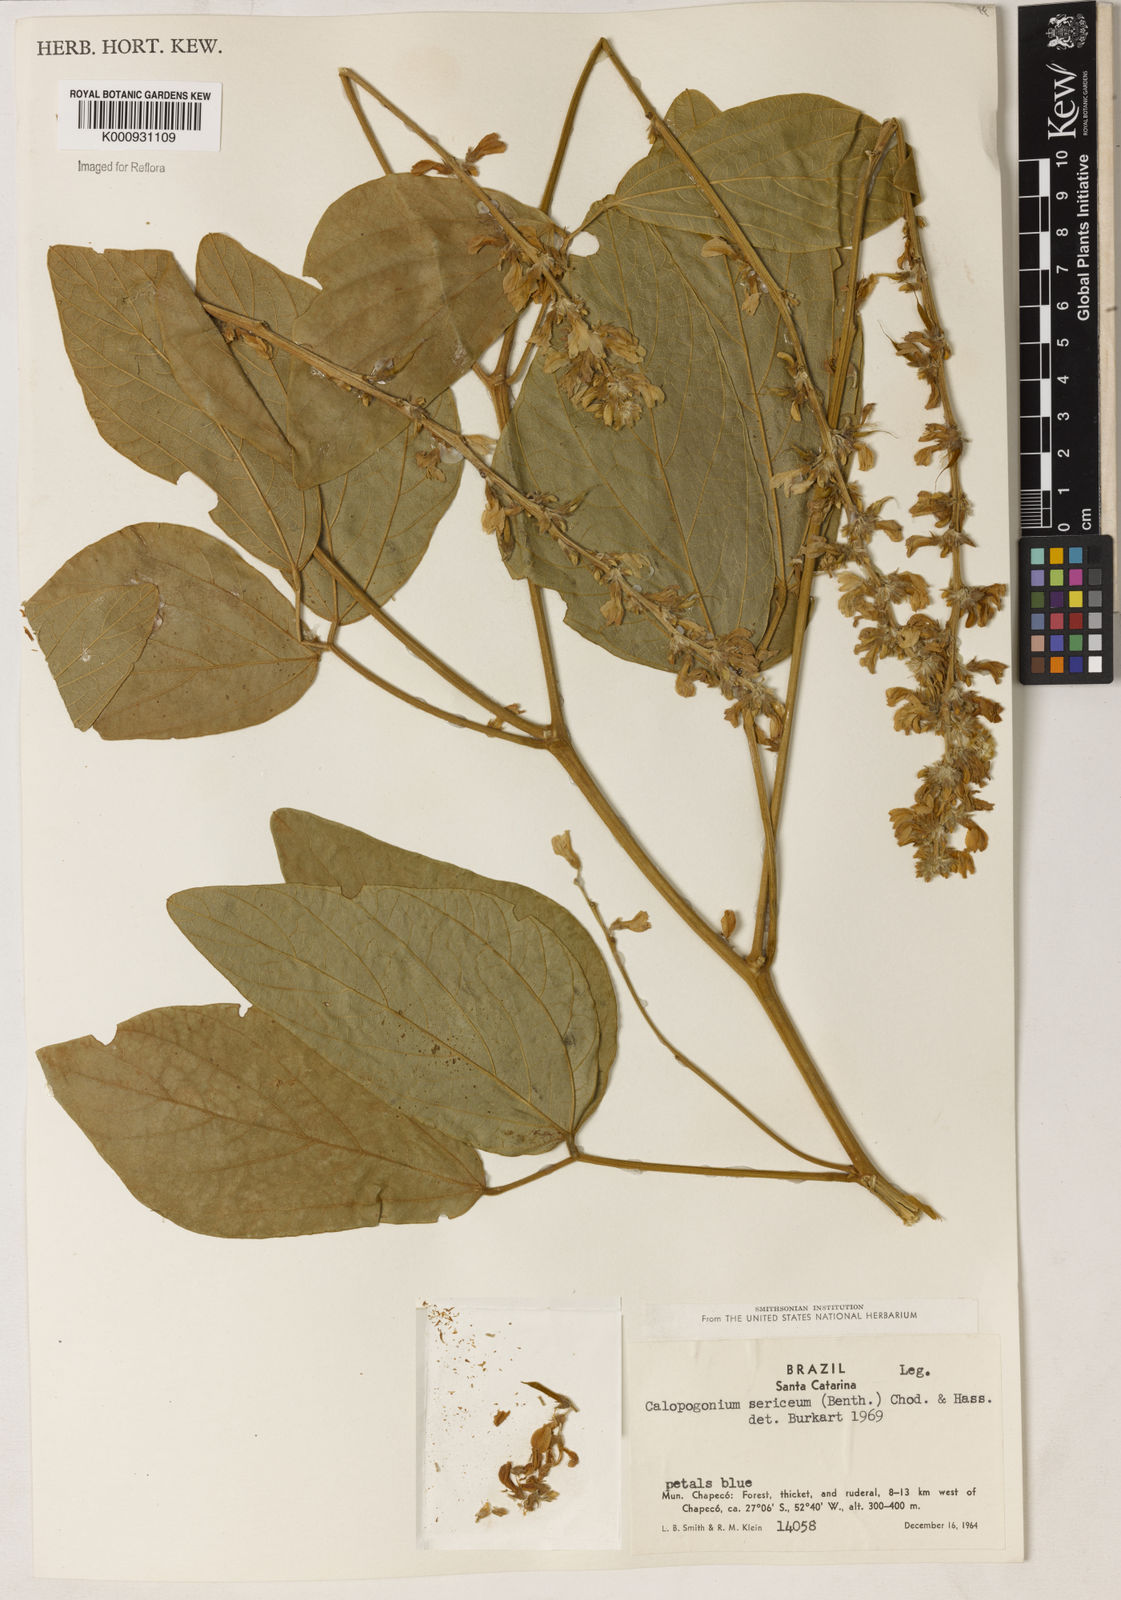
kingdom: Plantae
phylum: Tracheophyta
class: Magnoliopsida
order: Fabales
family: Fabaceae
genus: Calopogonium
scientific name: Calopogonium sericeum
